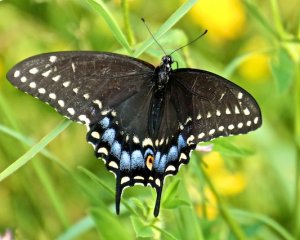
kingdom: Animalia
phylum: Arthropoda
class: Insecta
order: Lepidoptera
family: Papilionidae
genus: Papilio
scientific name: Papilio polyxenes
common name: Black Swallowtail
